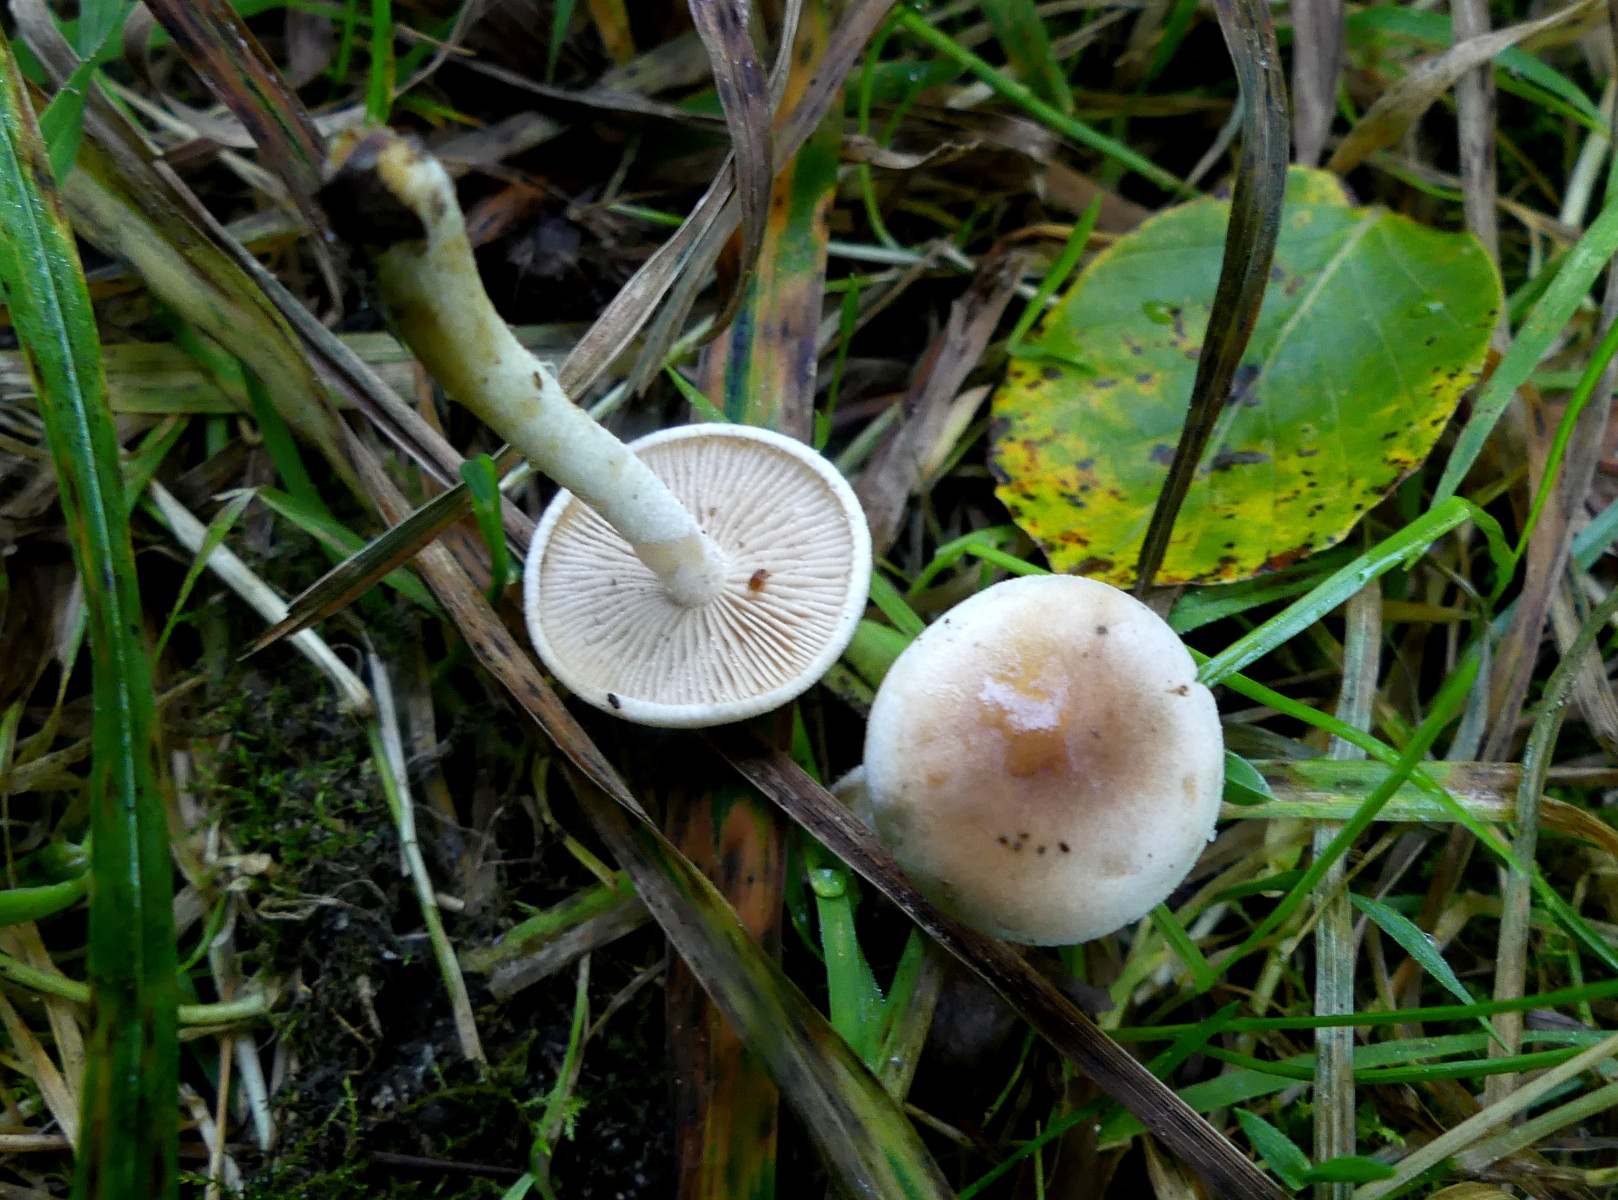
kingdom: Fungi
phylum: Basidiomycota
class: Agaricomycetes
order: Agaricales
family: Hymenogastraceae
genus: Hebeloma
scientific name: Hebeloma
